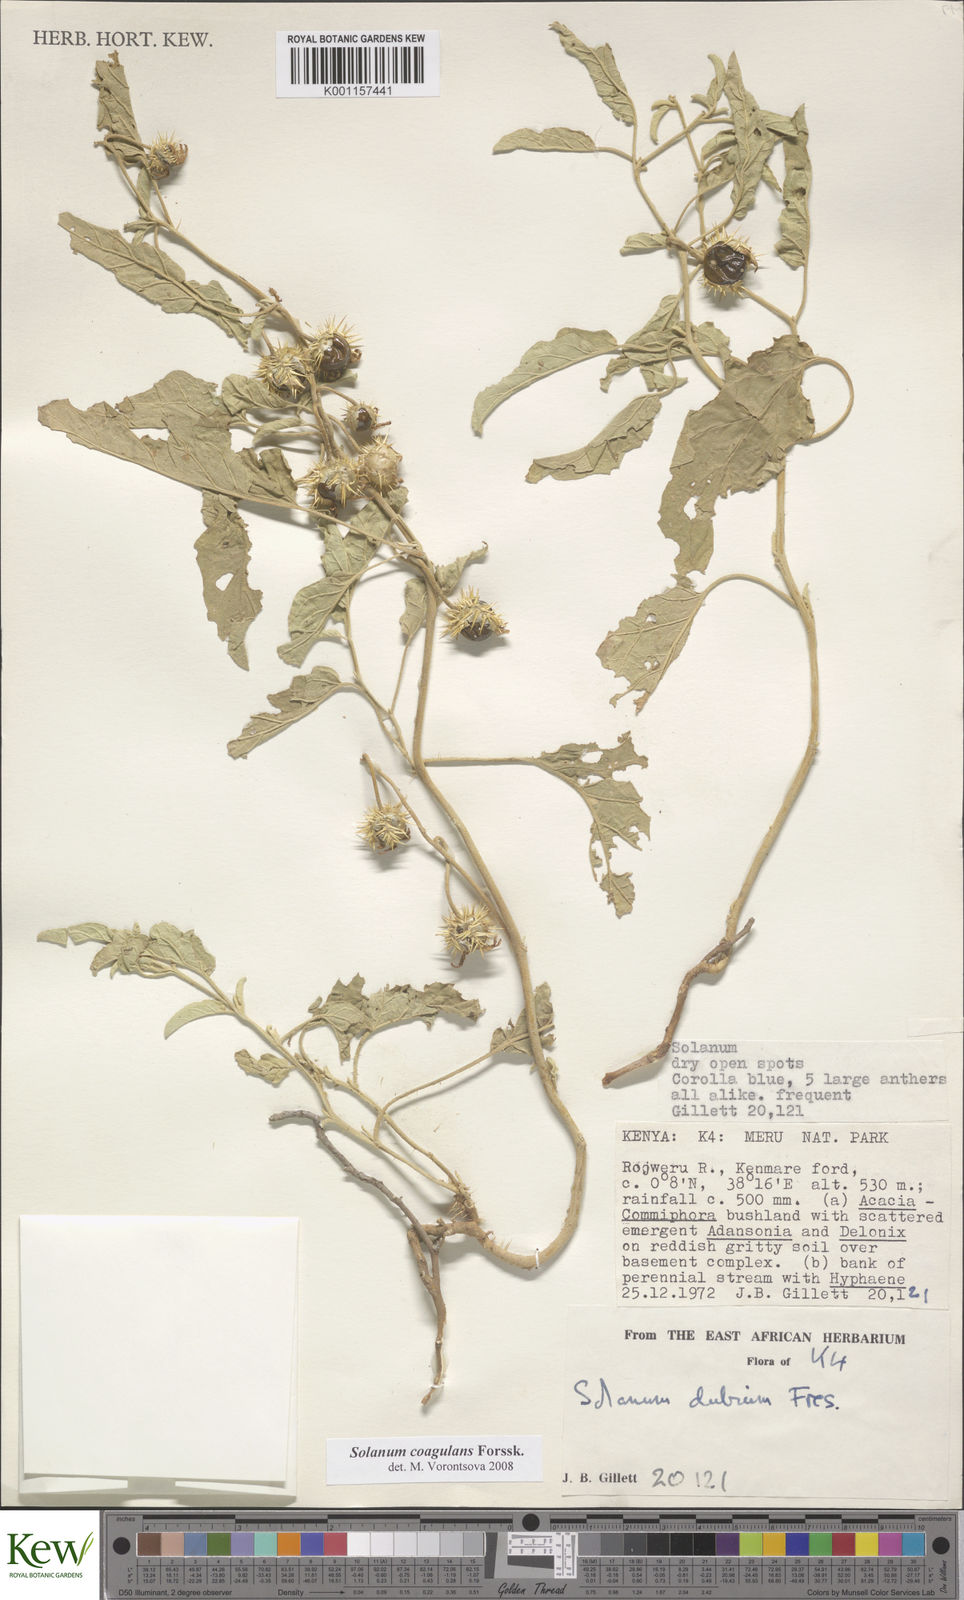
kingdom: Plantae
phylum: Tracheophyta
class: Magnoliopsida
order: Solanales
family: Solanaceae
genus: Solanum
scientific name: Solanum coagulans
